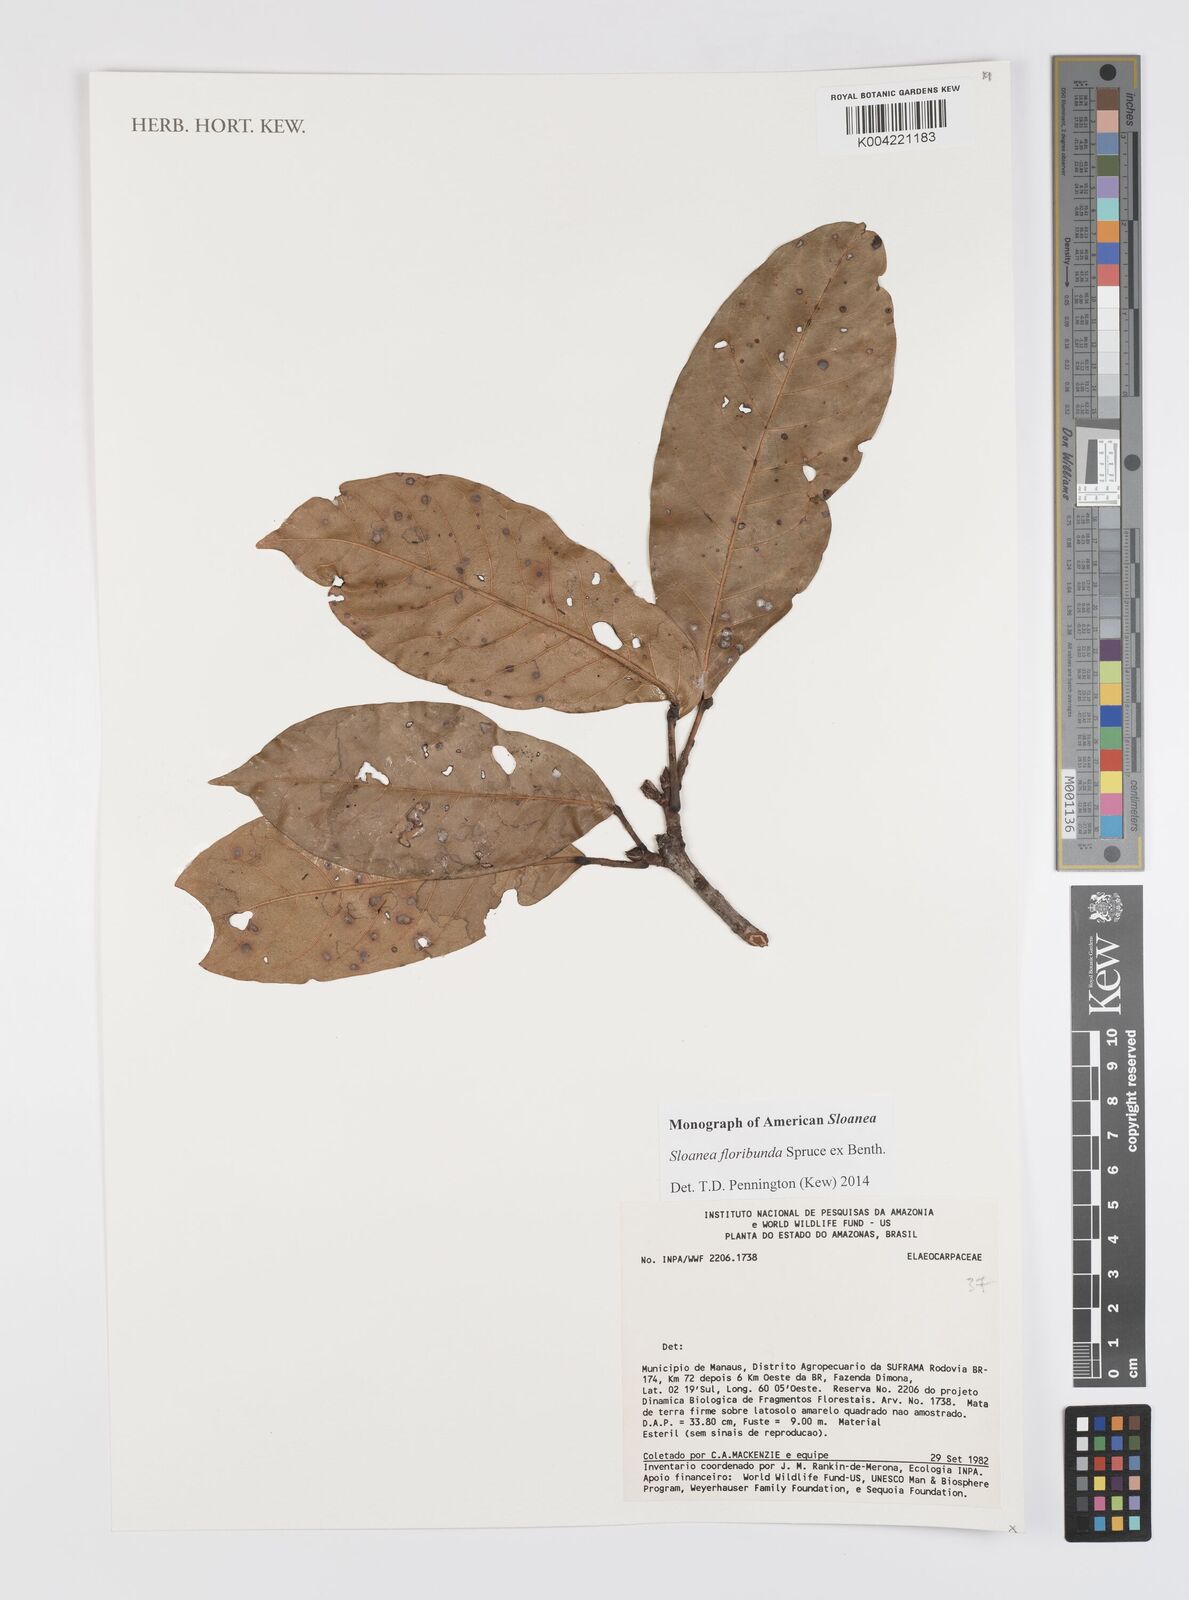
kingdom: Plantae
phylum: Tracheophyta
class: Magnoliopsida
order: Oxalidales
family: Elaeocarpaceae
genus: Sloanea
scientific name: Sloanea floribunda
